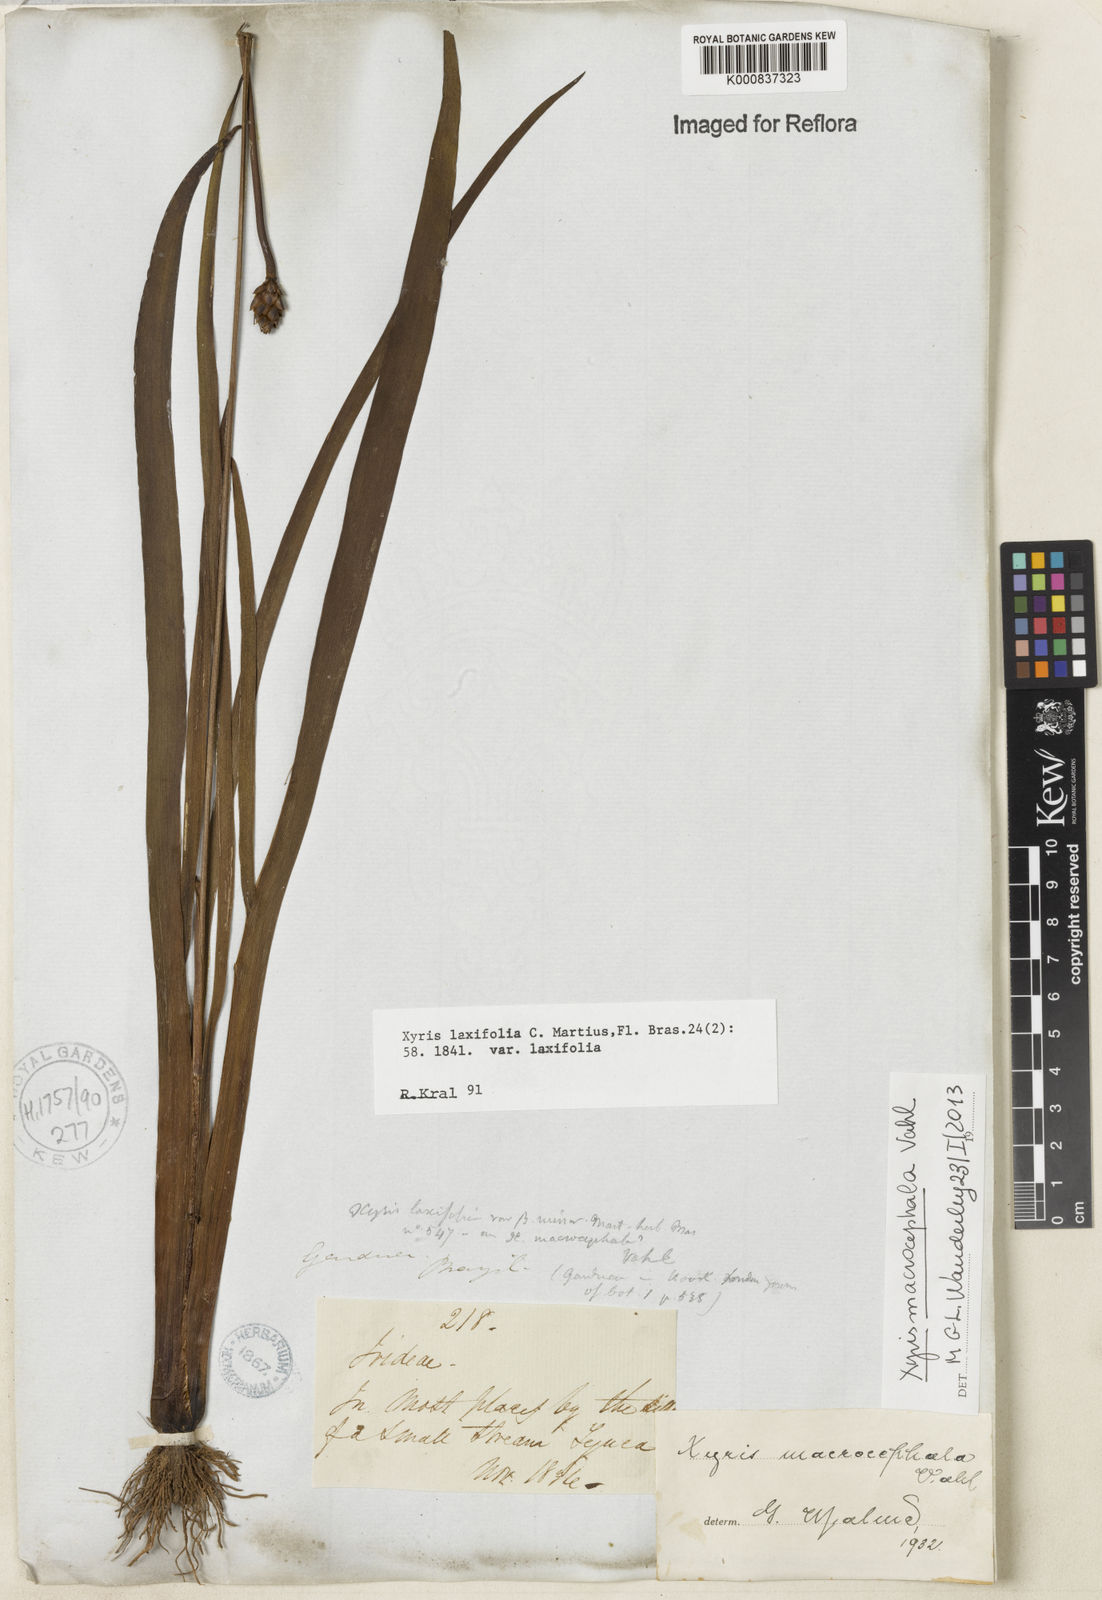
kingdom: Plantae
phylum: Tracheophyta
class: Liliopsida
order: Poales
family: Xyridaceae
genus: Xyris
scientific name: Xyris jupicai
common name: Richard's yelloweyed grass
